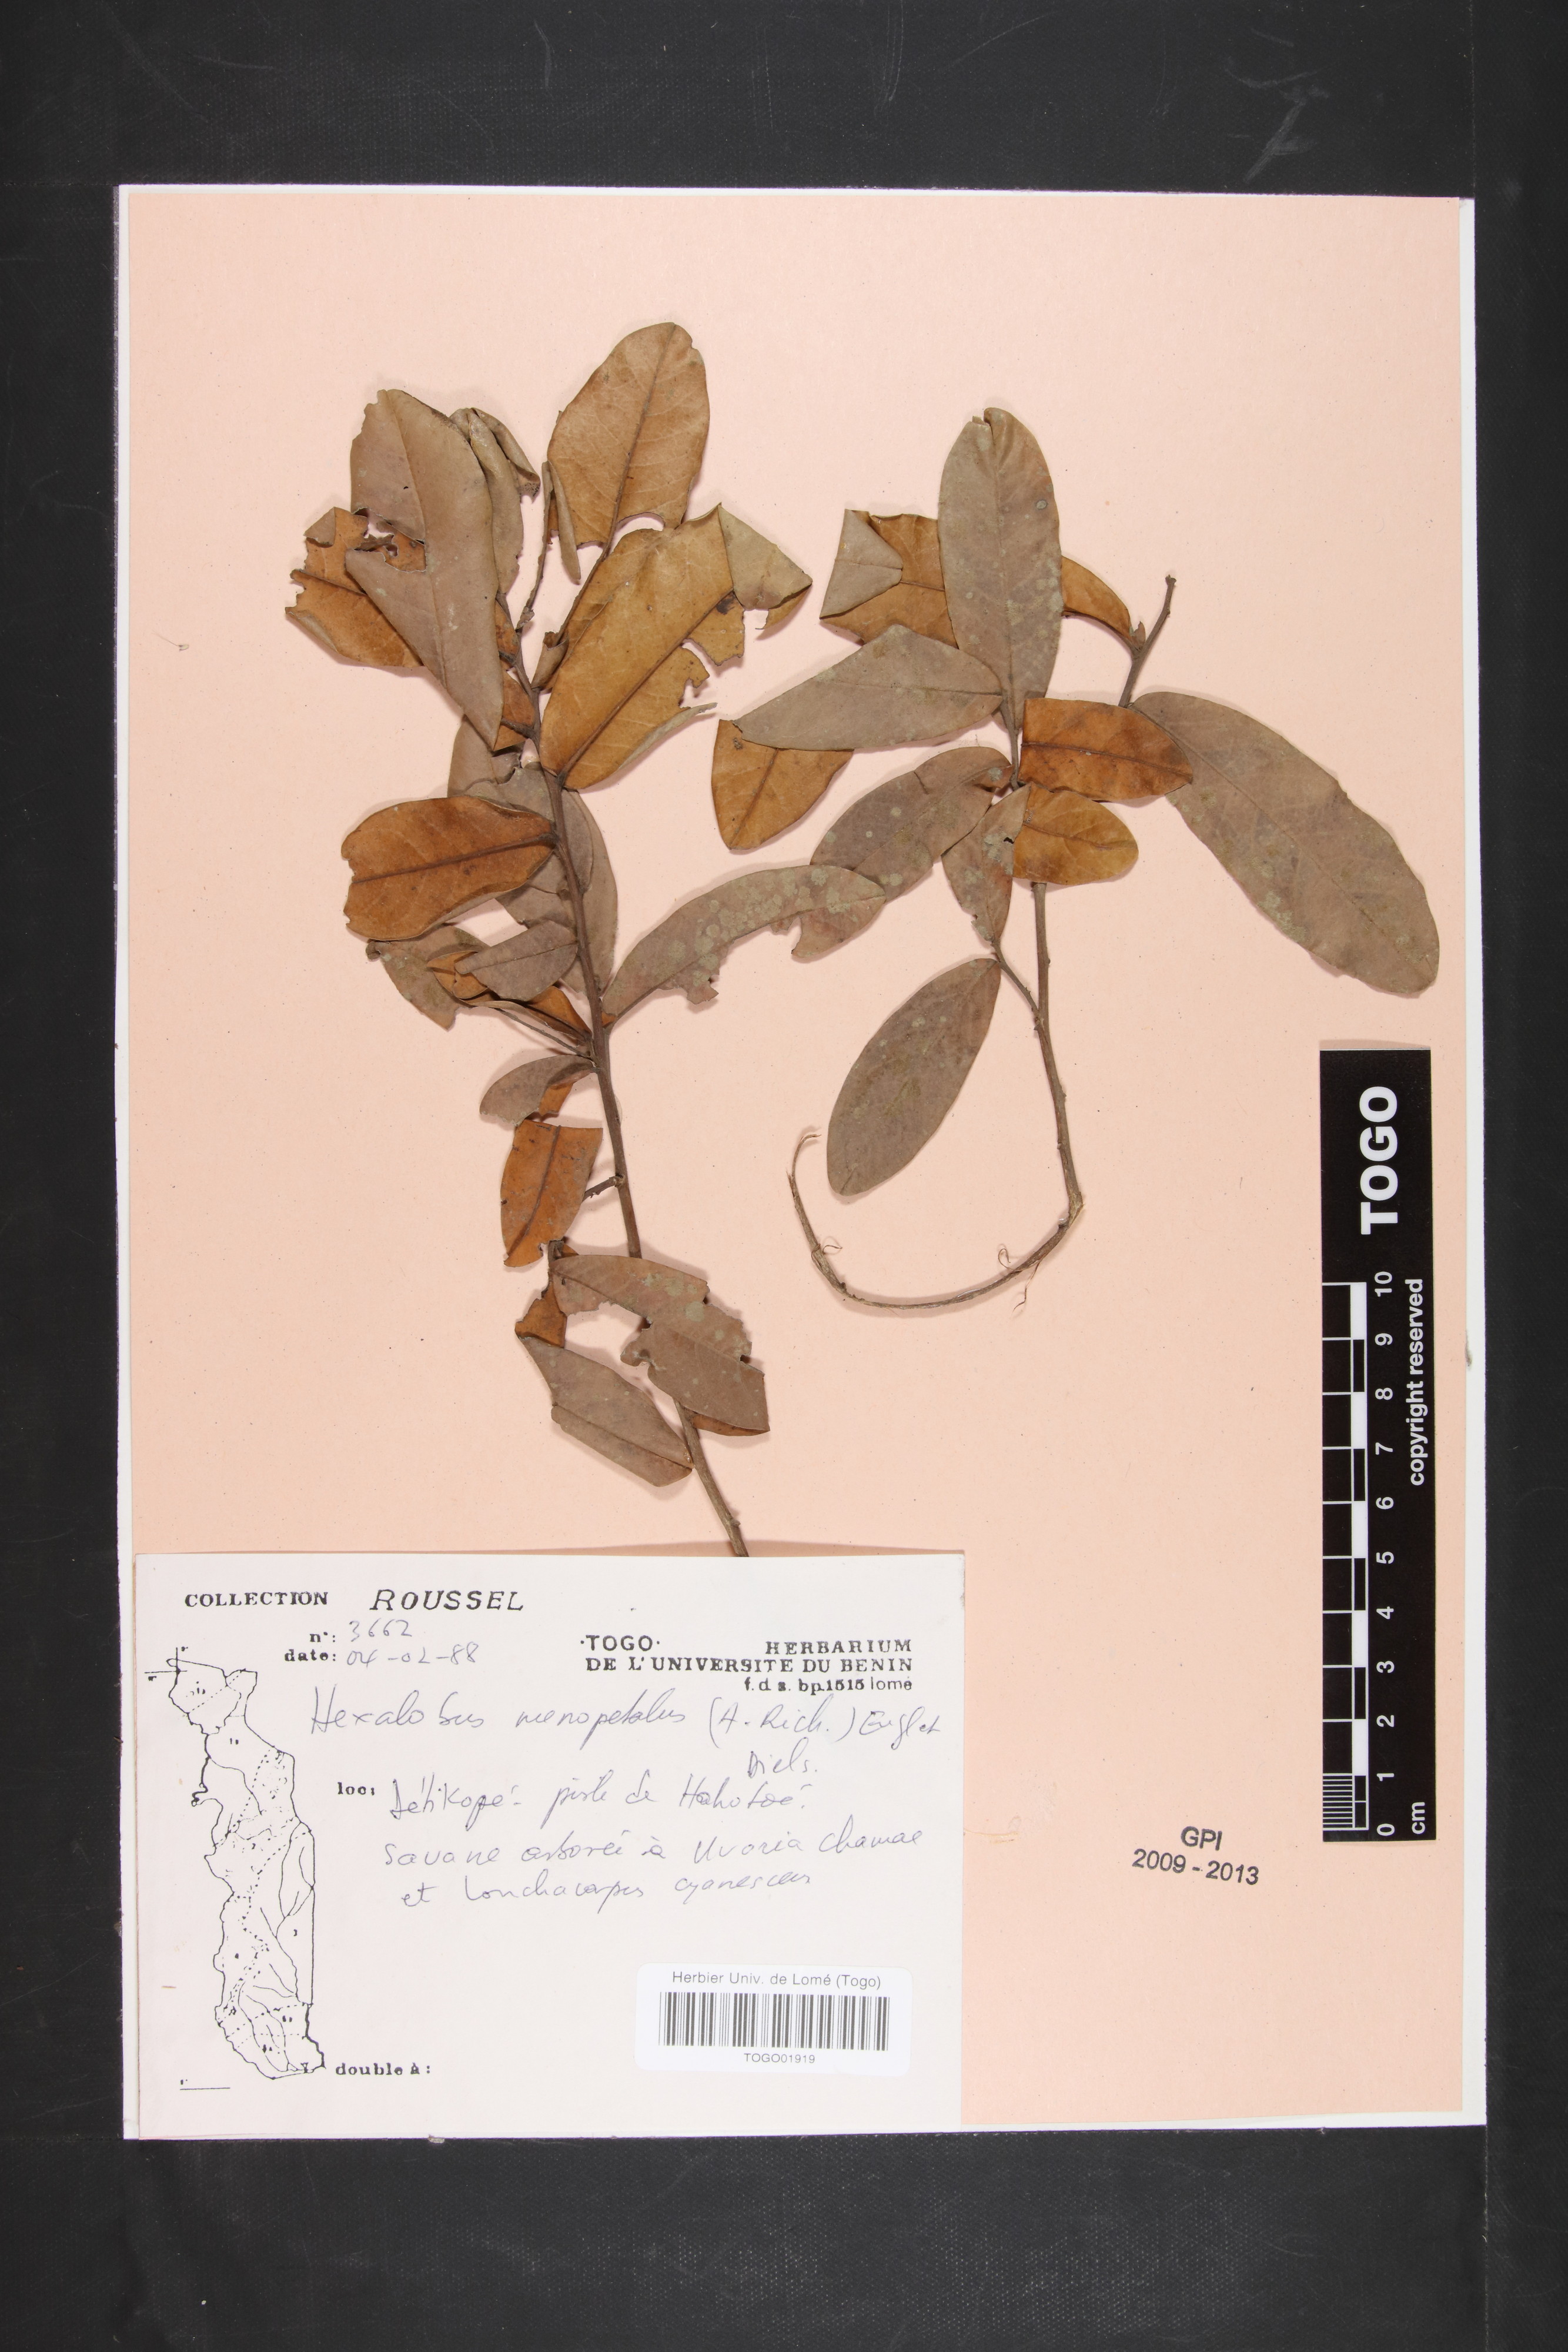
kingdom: Plantae
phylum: Tracheophyta
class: Magnoliopsida
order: Magnoliales
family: Annonaceae
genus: Hexalobus
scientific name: Hexalobus monopetalus
